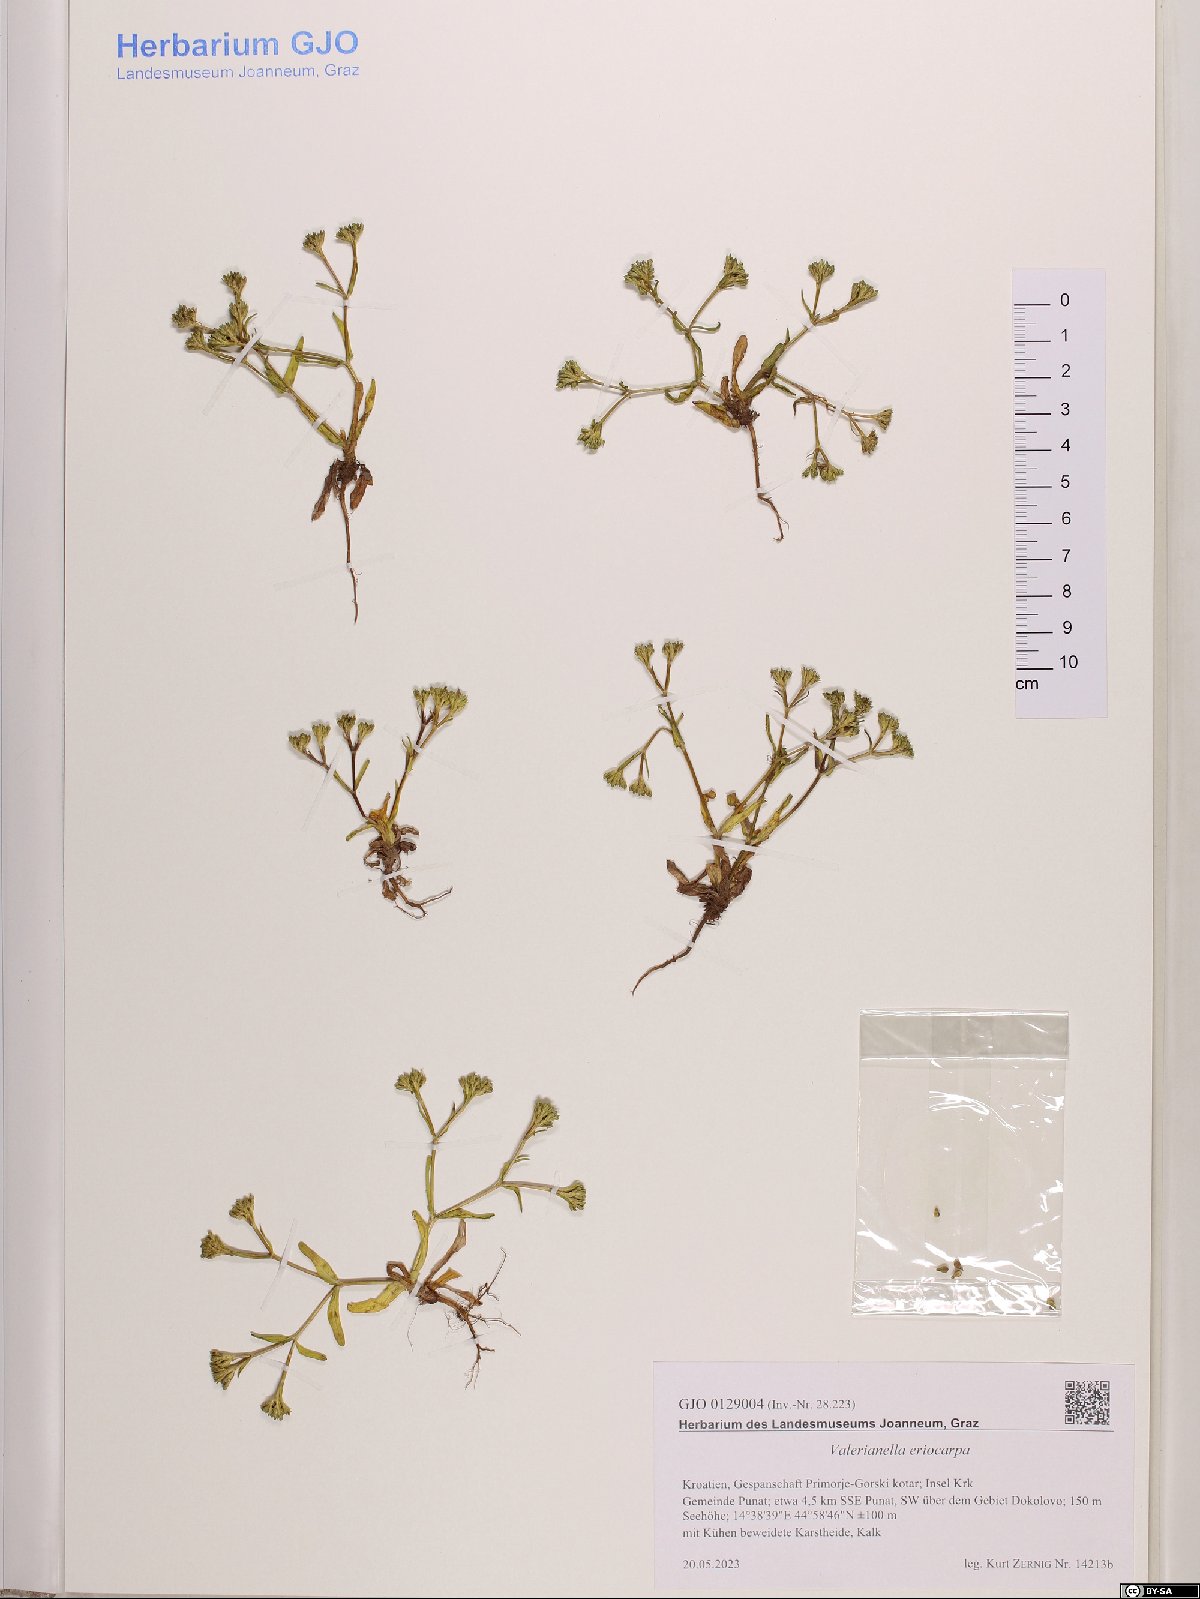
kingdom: Plantae
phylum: Tracheophyta
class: Magnoliopsida
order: Dipsacales
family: Caprifoliaceae
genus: Valerianella
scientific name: Valerianella eriocarpa
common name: Hairy-fruited cornsalad
